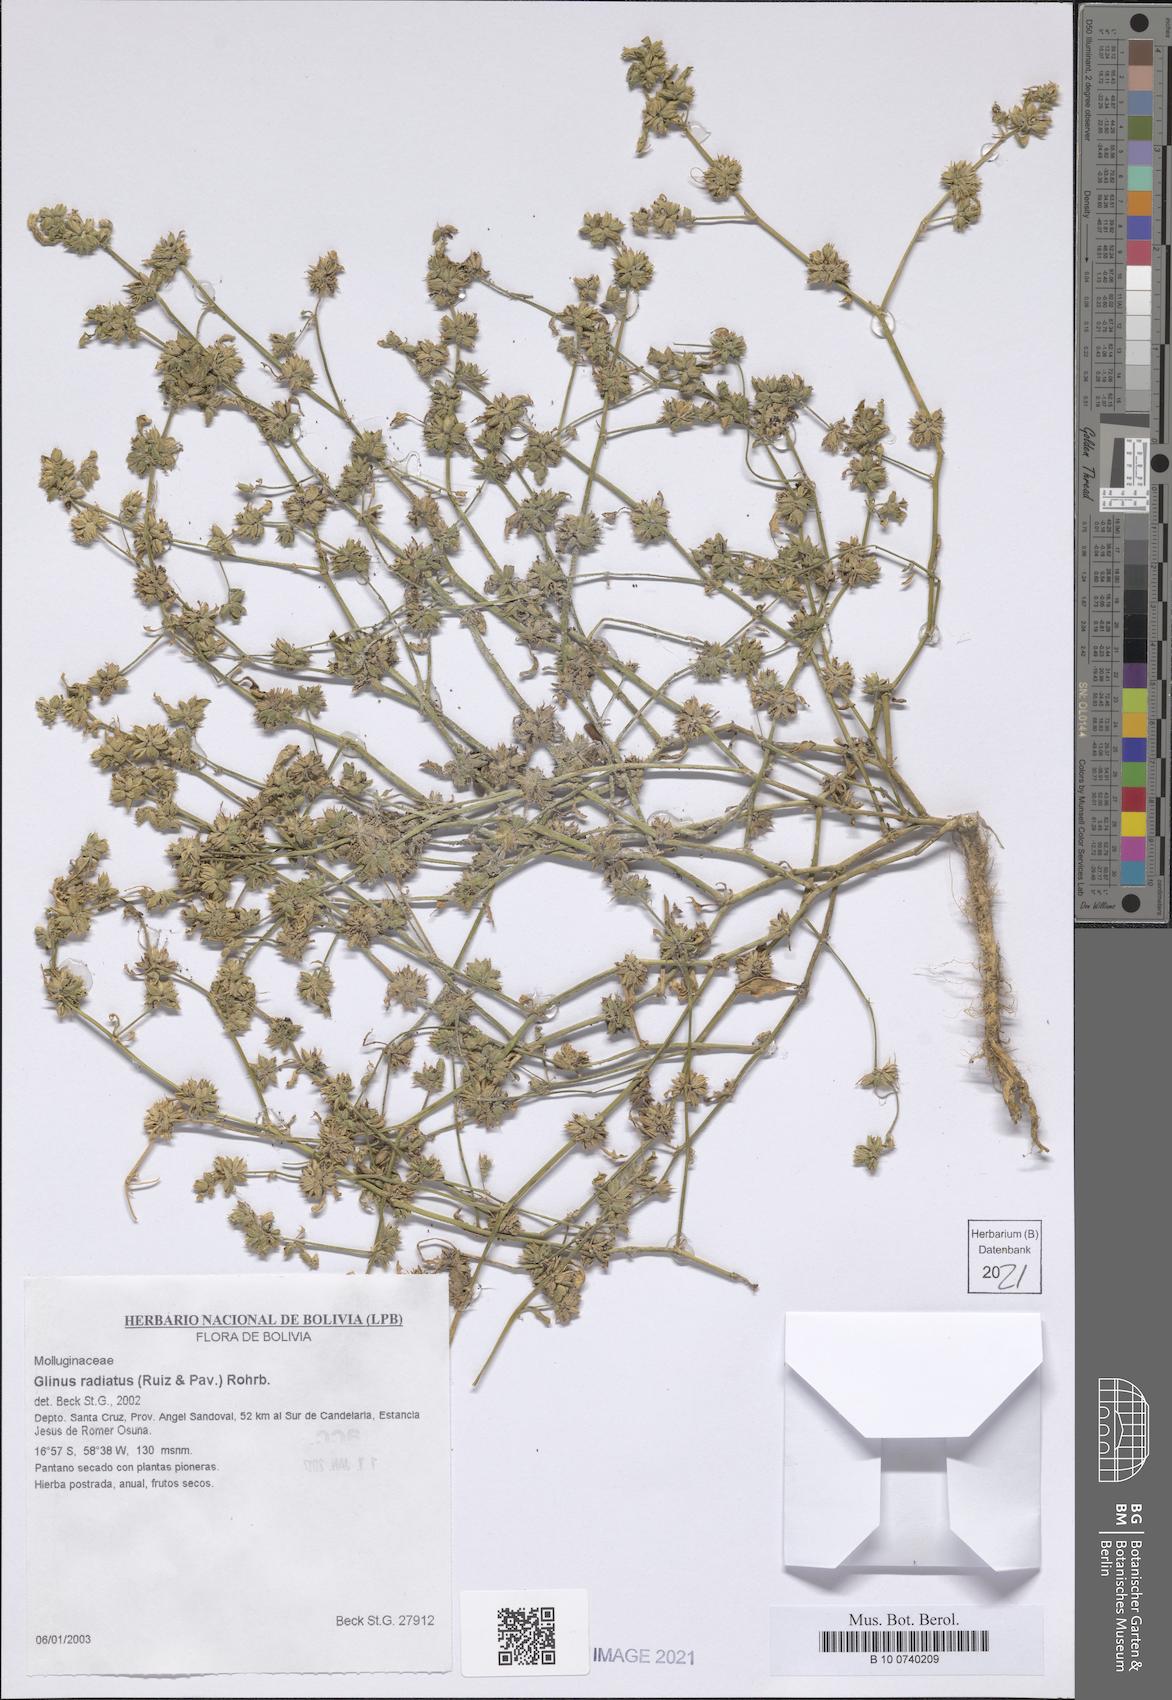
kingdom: Plantae
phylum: Tracheophyta
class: Magnoliopsida
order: Caryophyllales
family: Molluginaceae
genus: Glinus
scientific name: Glinus radiatus
